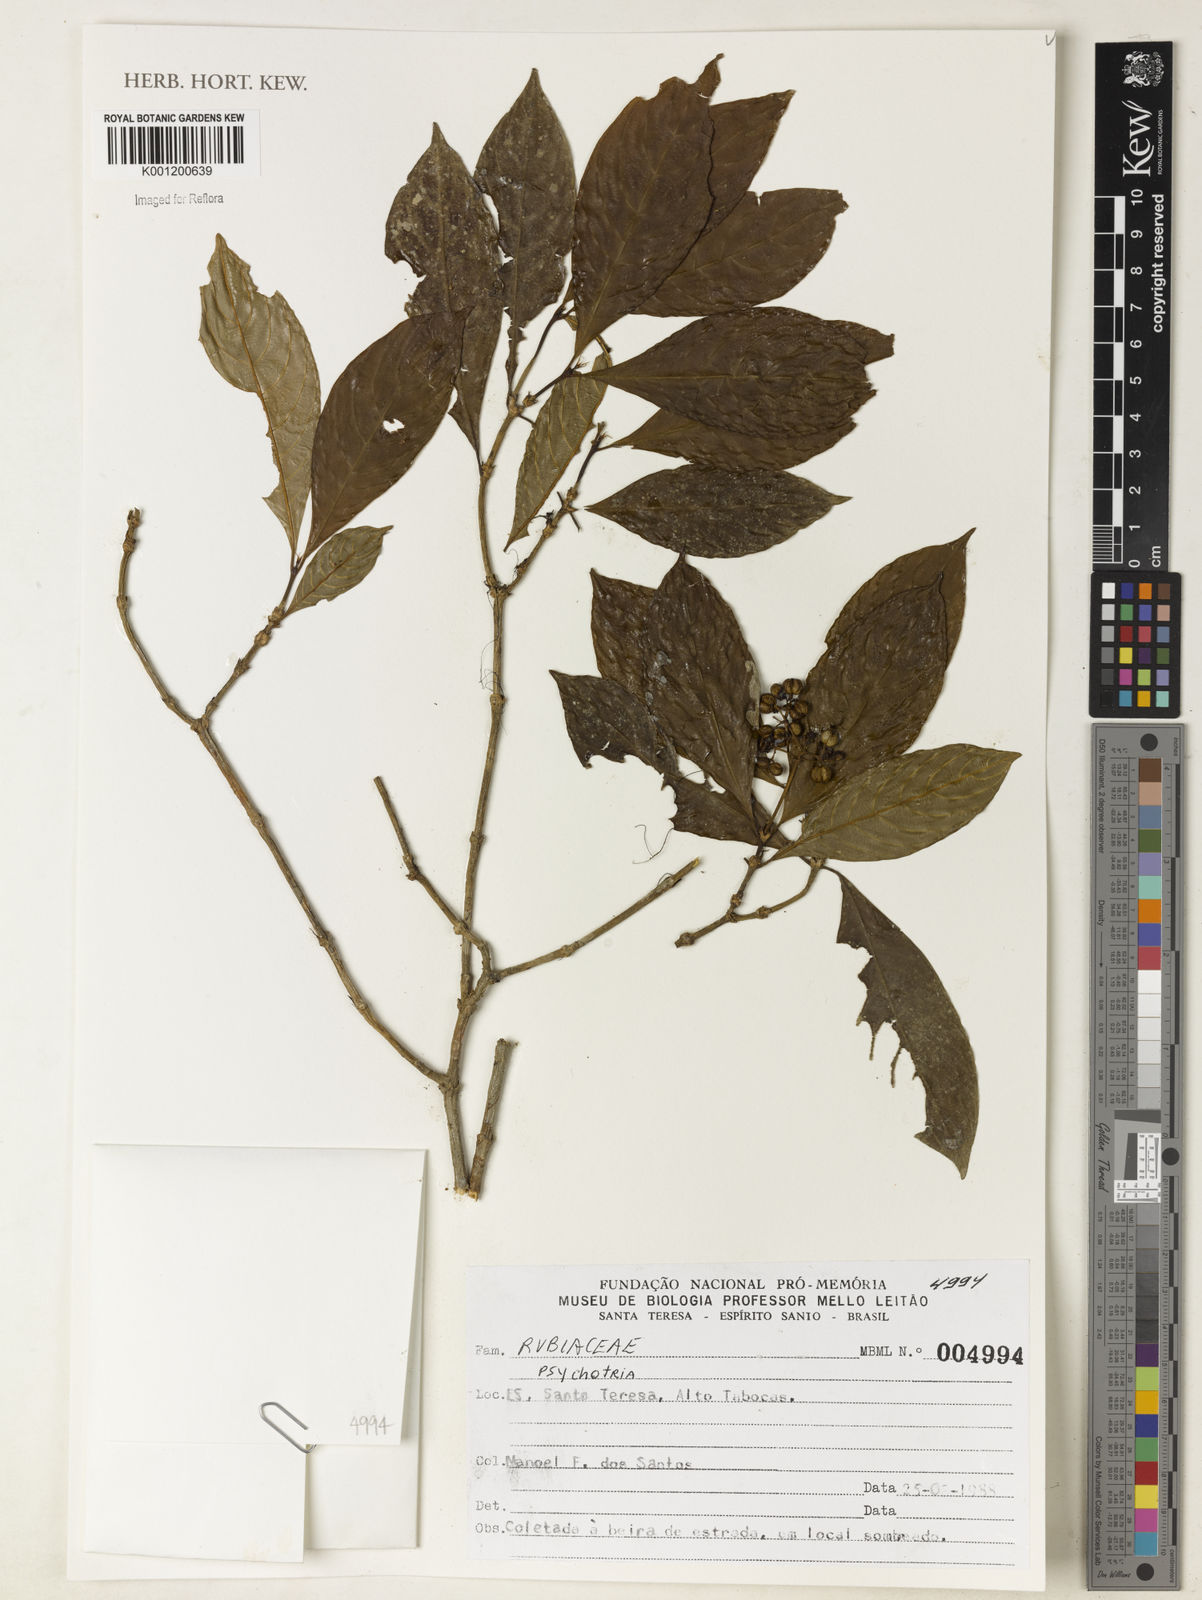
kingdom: Plantae
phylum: Tracheophyta
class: Magnoliopsida
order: Gentianales
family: Rubiaceae
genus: Psychotria
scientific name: Psychotria
